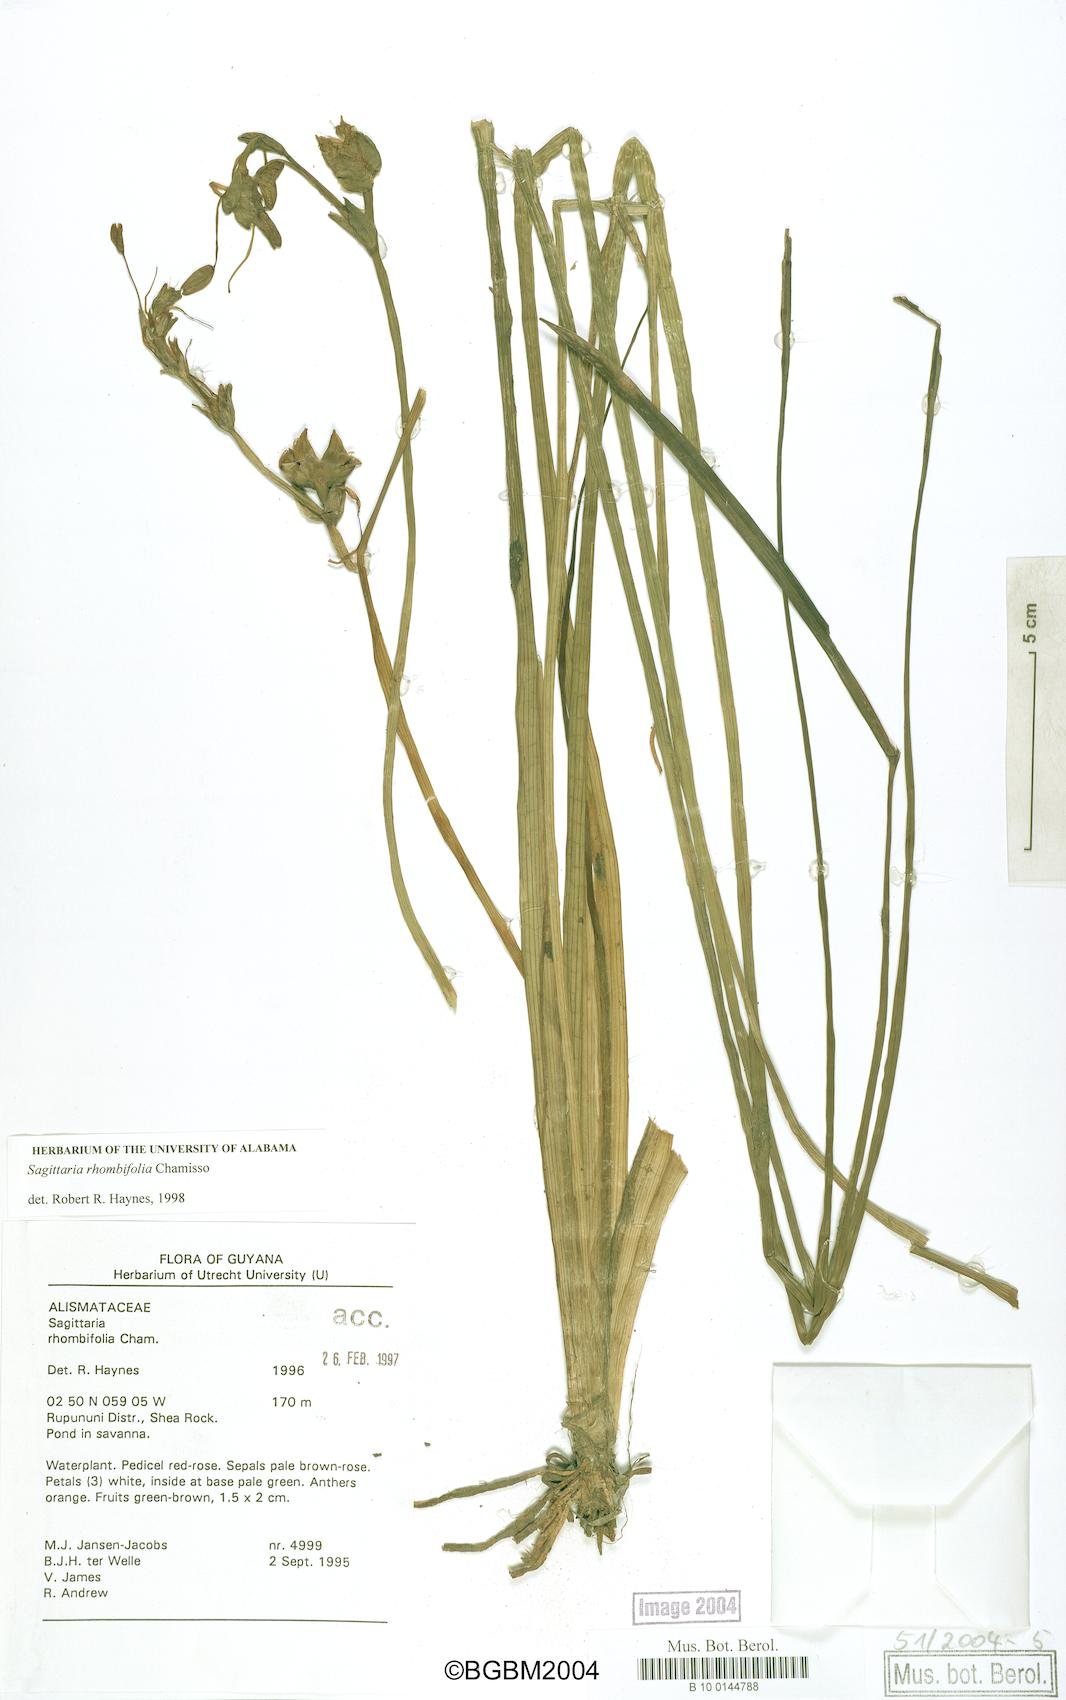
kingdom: Plantae
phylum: Tracheophyta
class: Liliopsida
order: Alismatales
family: Alismataceae
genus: Sagittaria
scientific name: Sagittaria rhombifolia
